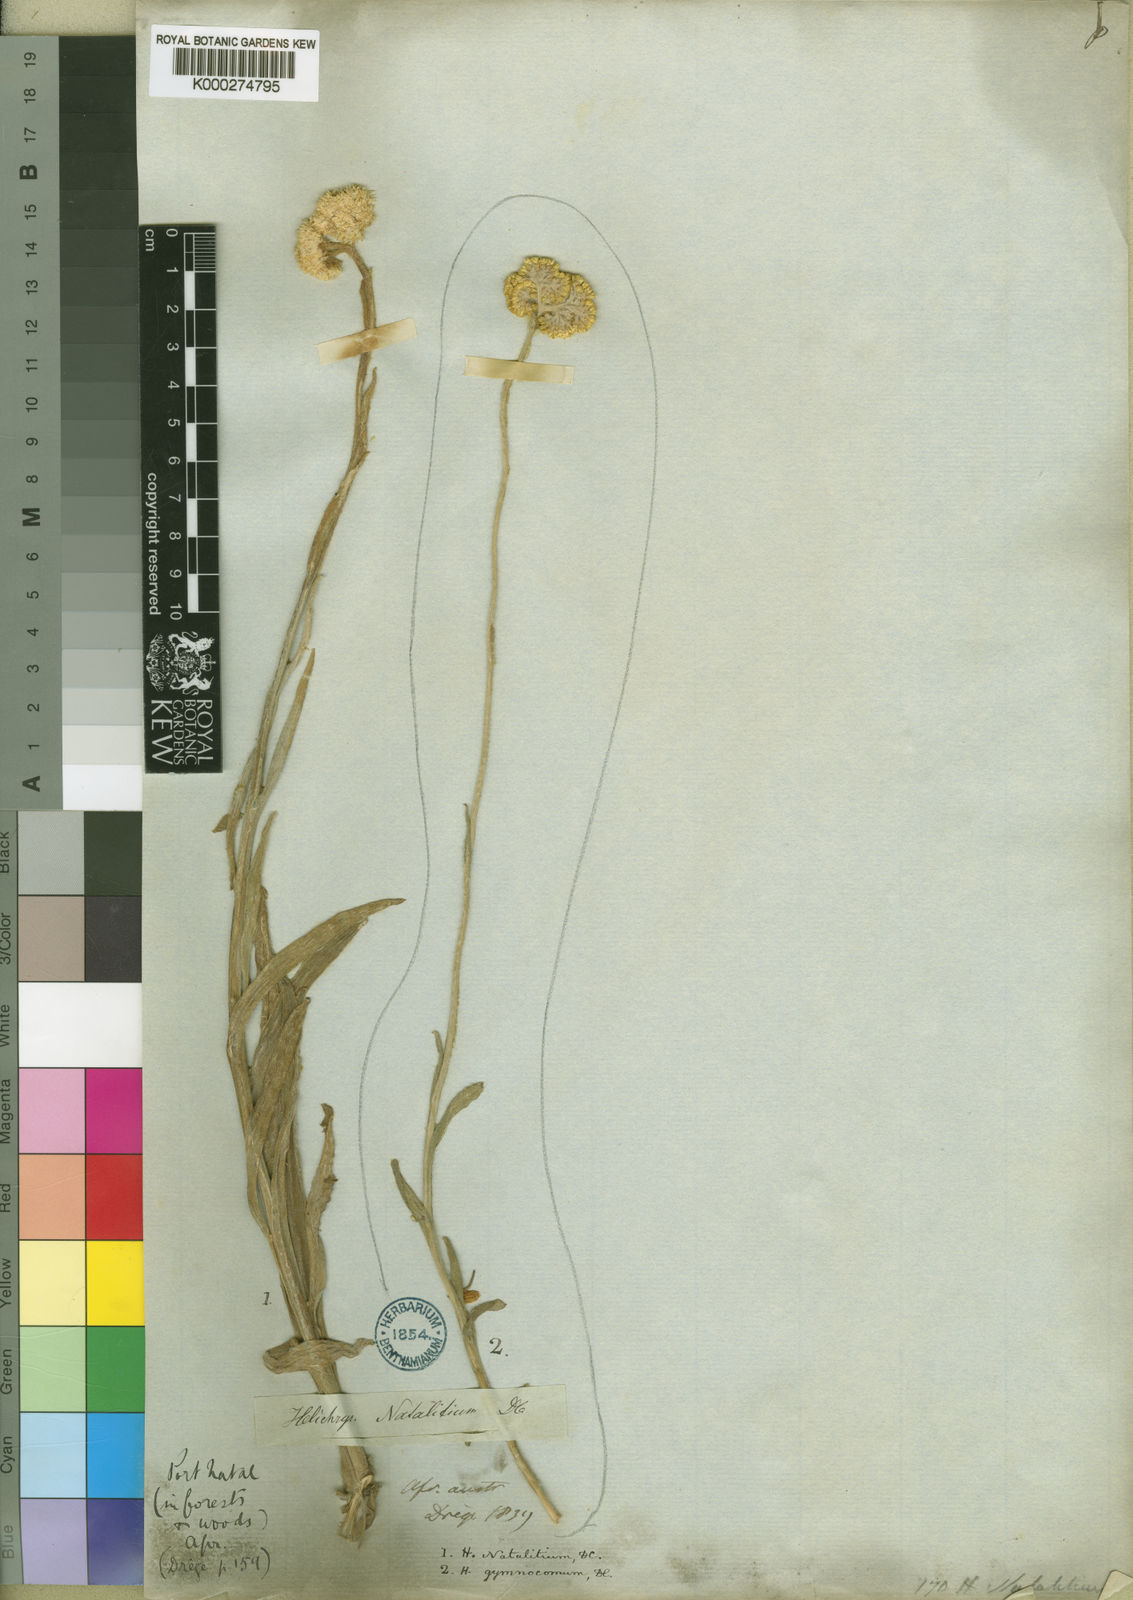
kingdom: Plantae
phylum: Tracheophyta
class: Magnoliopsida
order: Asterales
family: Asteraceae
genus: Helichrysum
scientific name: Helichrysum natalitium
